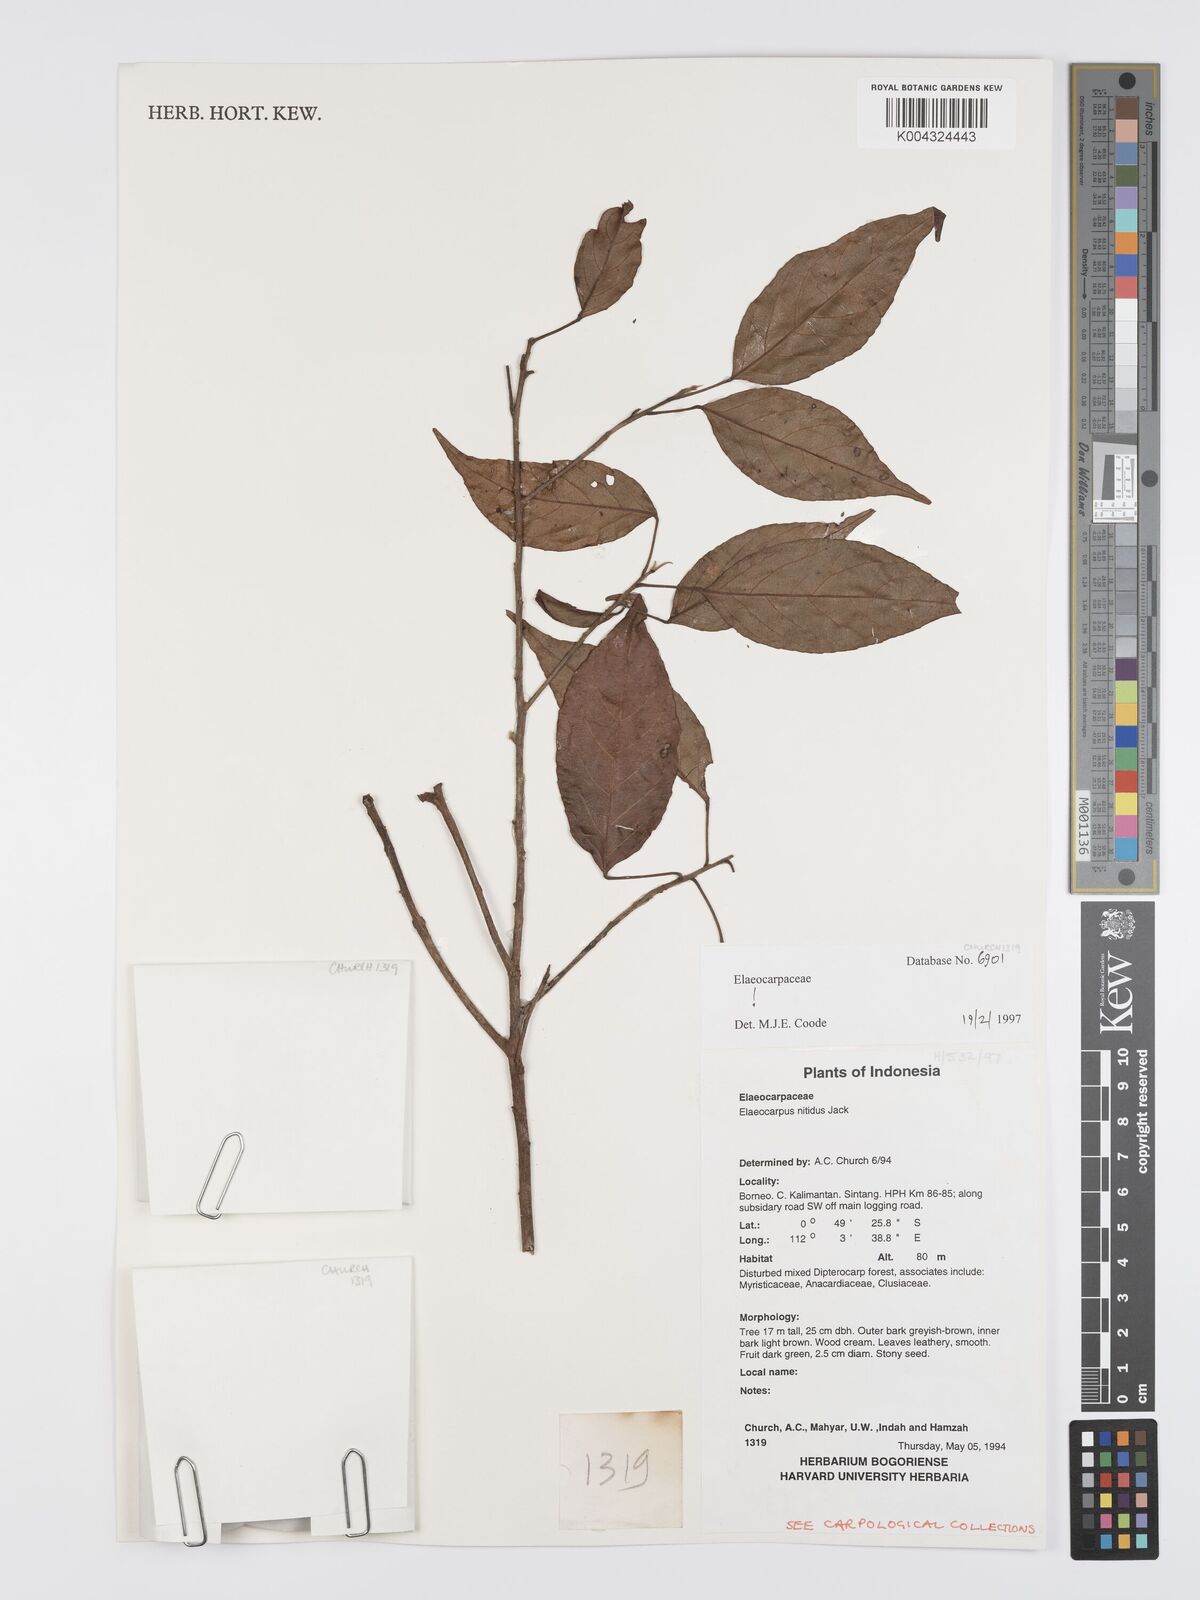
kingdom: Plantae
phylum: Tracheophyta
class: Magnoliopsida
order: Oxalidales
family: Elaeocarpaceae
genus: Elaeocarpus
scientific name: Elaeocarpus nitidus
